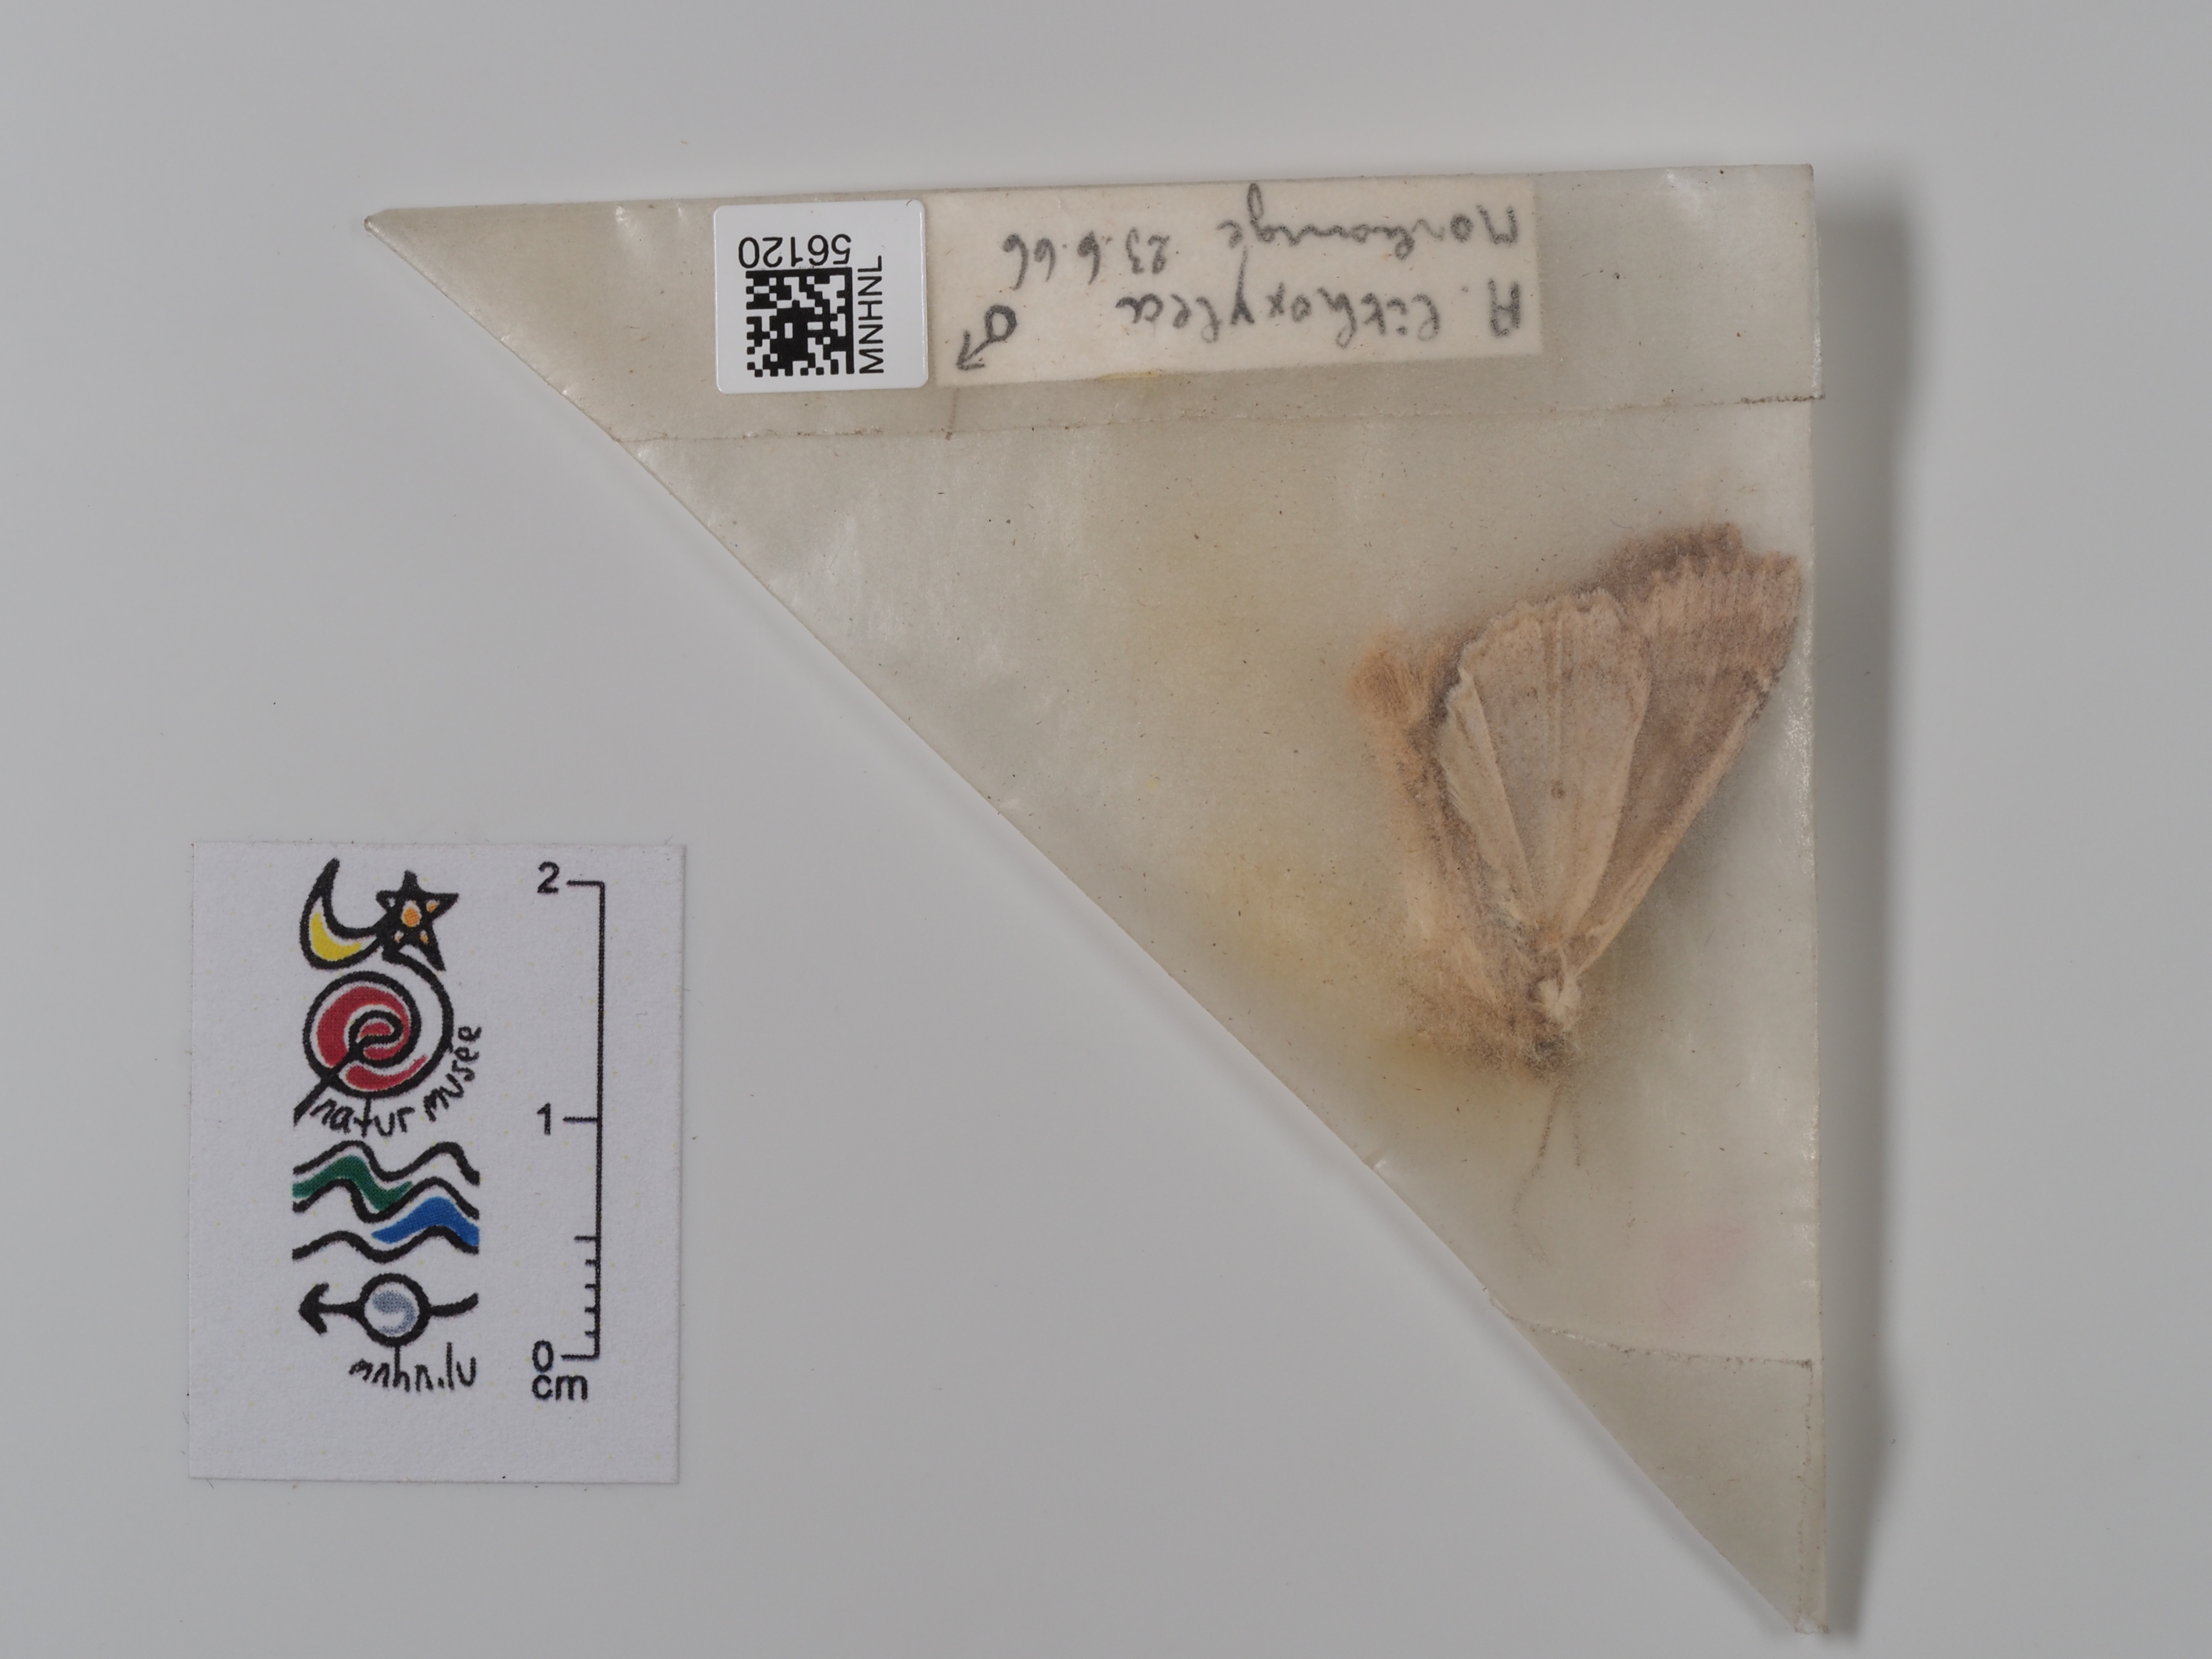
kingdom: Animalia
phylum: Arthropoda
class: Insecta
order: Lepidoptera
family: Noctuidae
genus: Apamea
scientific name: Apamea lithoxylaea
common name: Light arches
